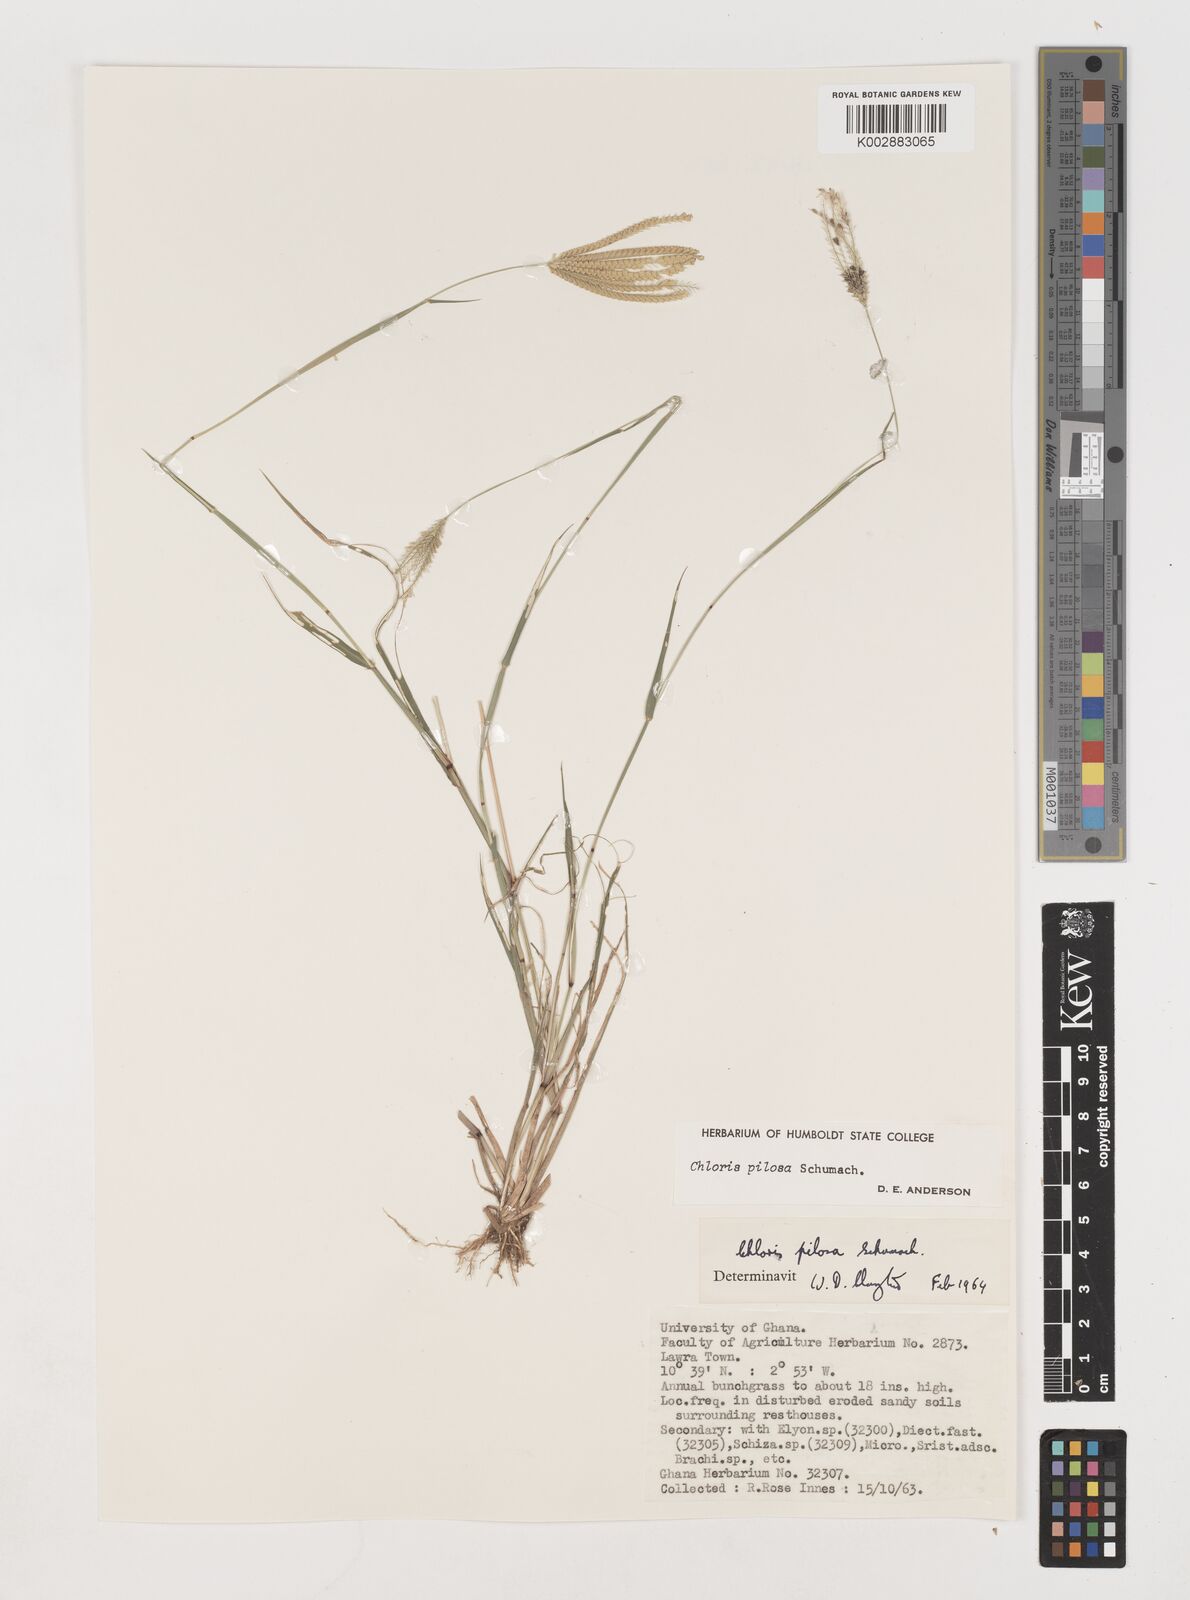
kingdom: Plantae
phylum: Tracheophyta
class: Liliopsida
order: Poales
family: Poaceae
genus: Chloris
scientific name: Chloris pilosa
